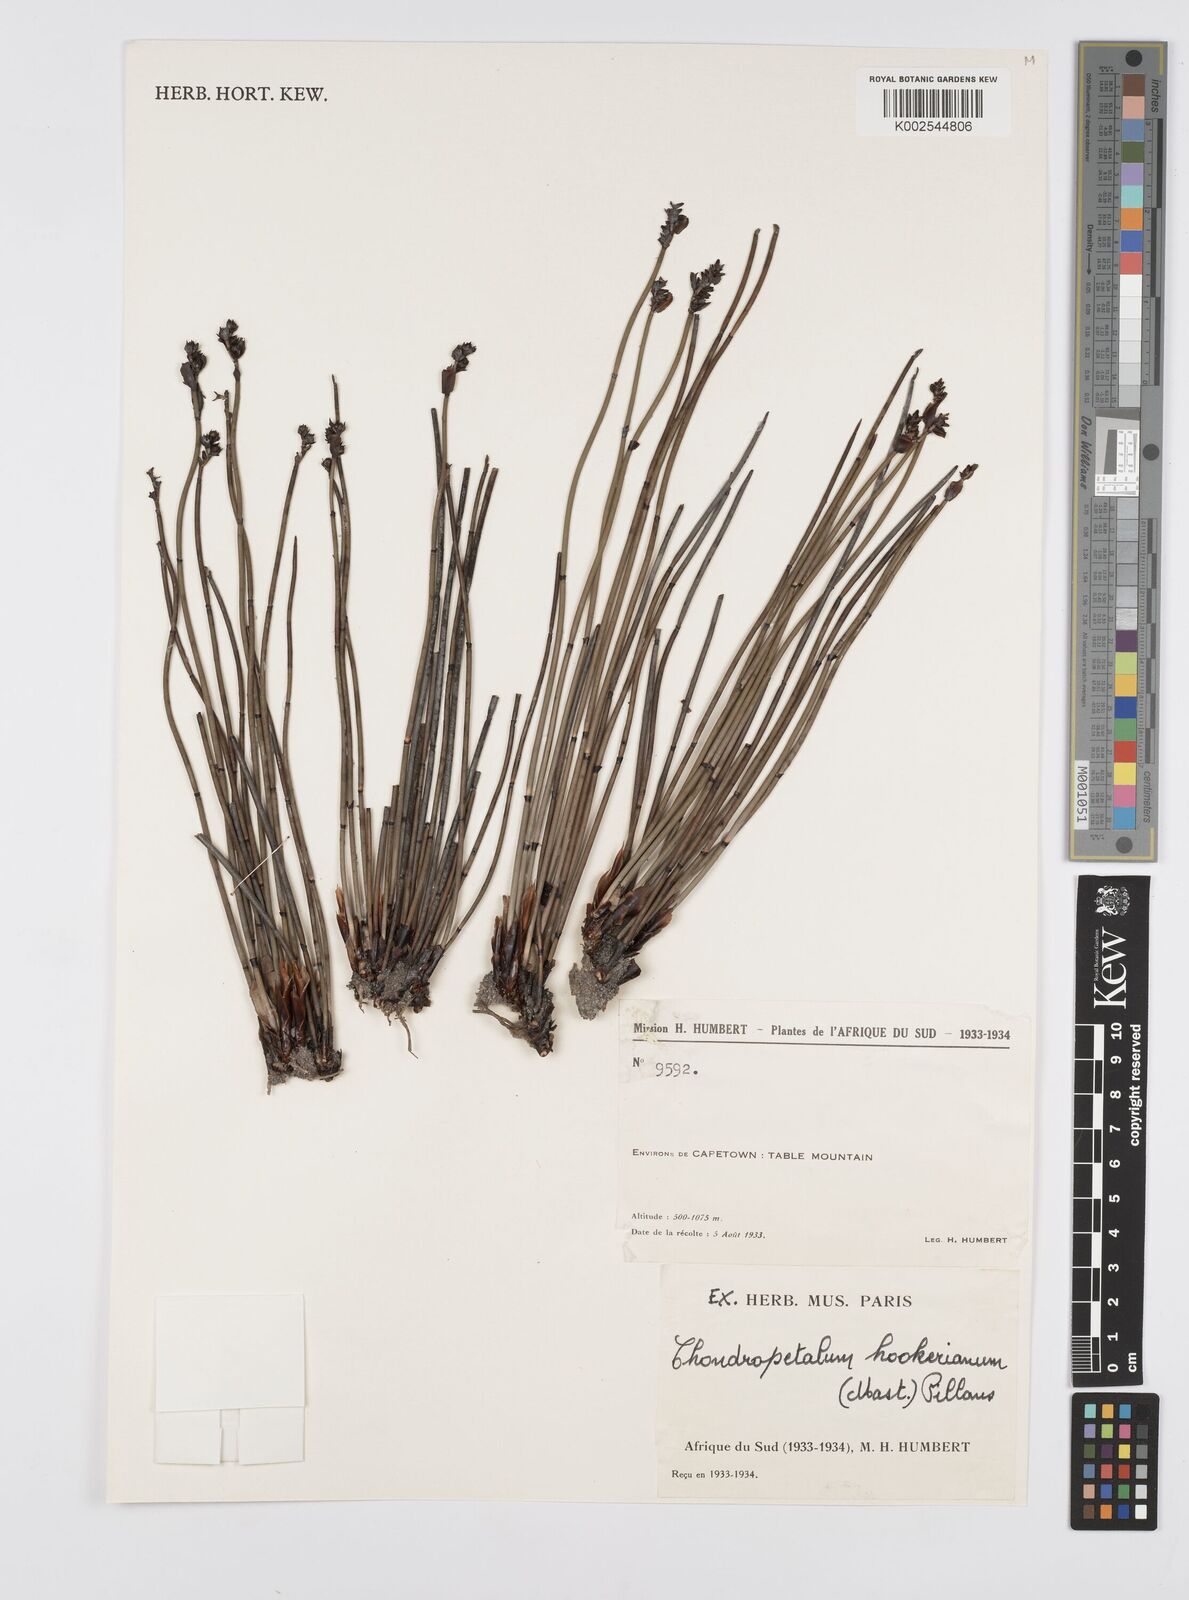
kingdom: Plantae
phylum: Tracheophyta
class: Liliopsida
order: Poales
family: Restionaceae
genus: Elegia
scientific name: Elegia
